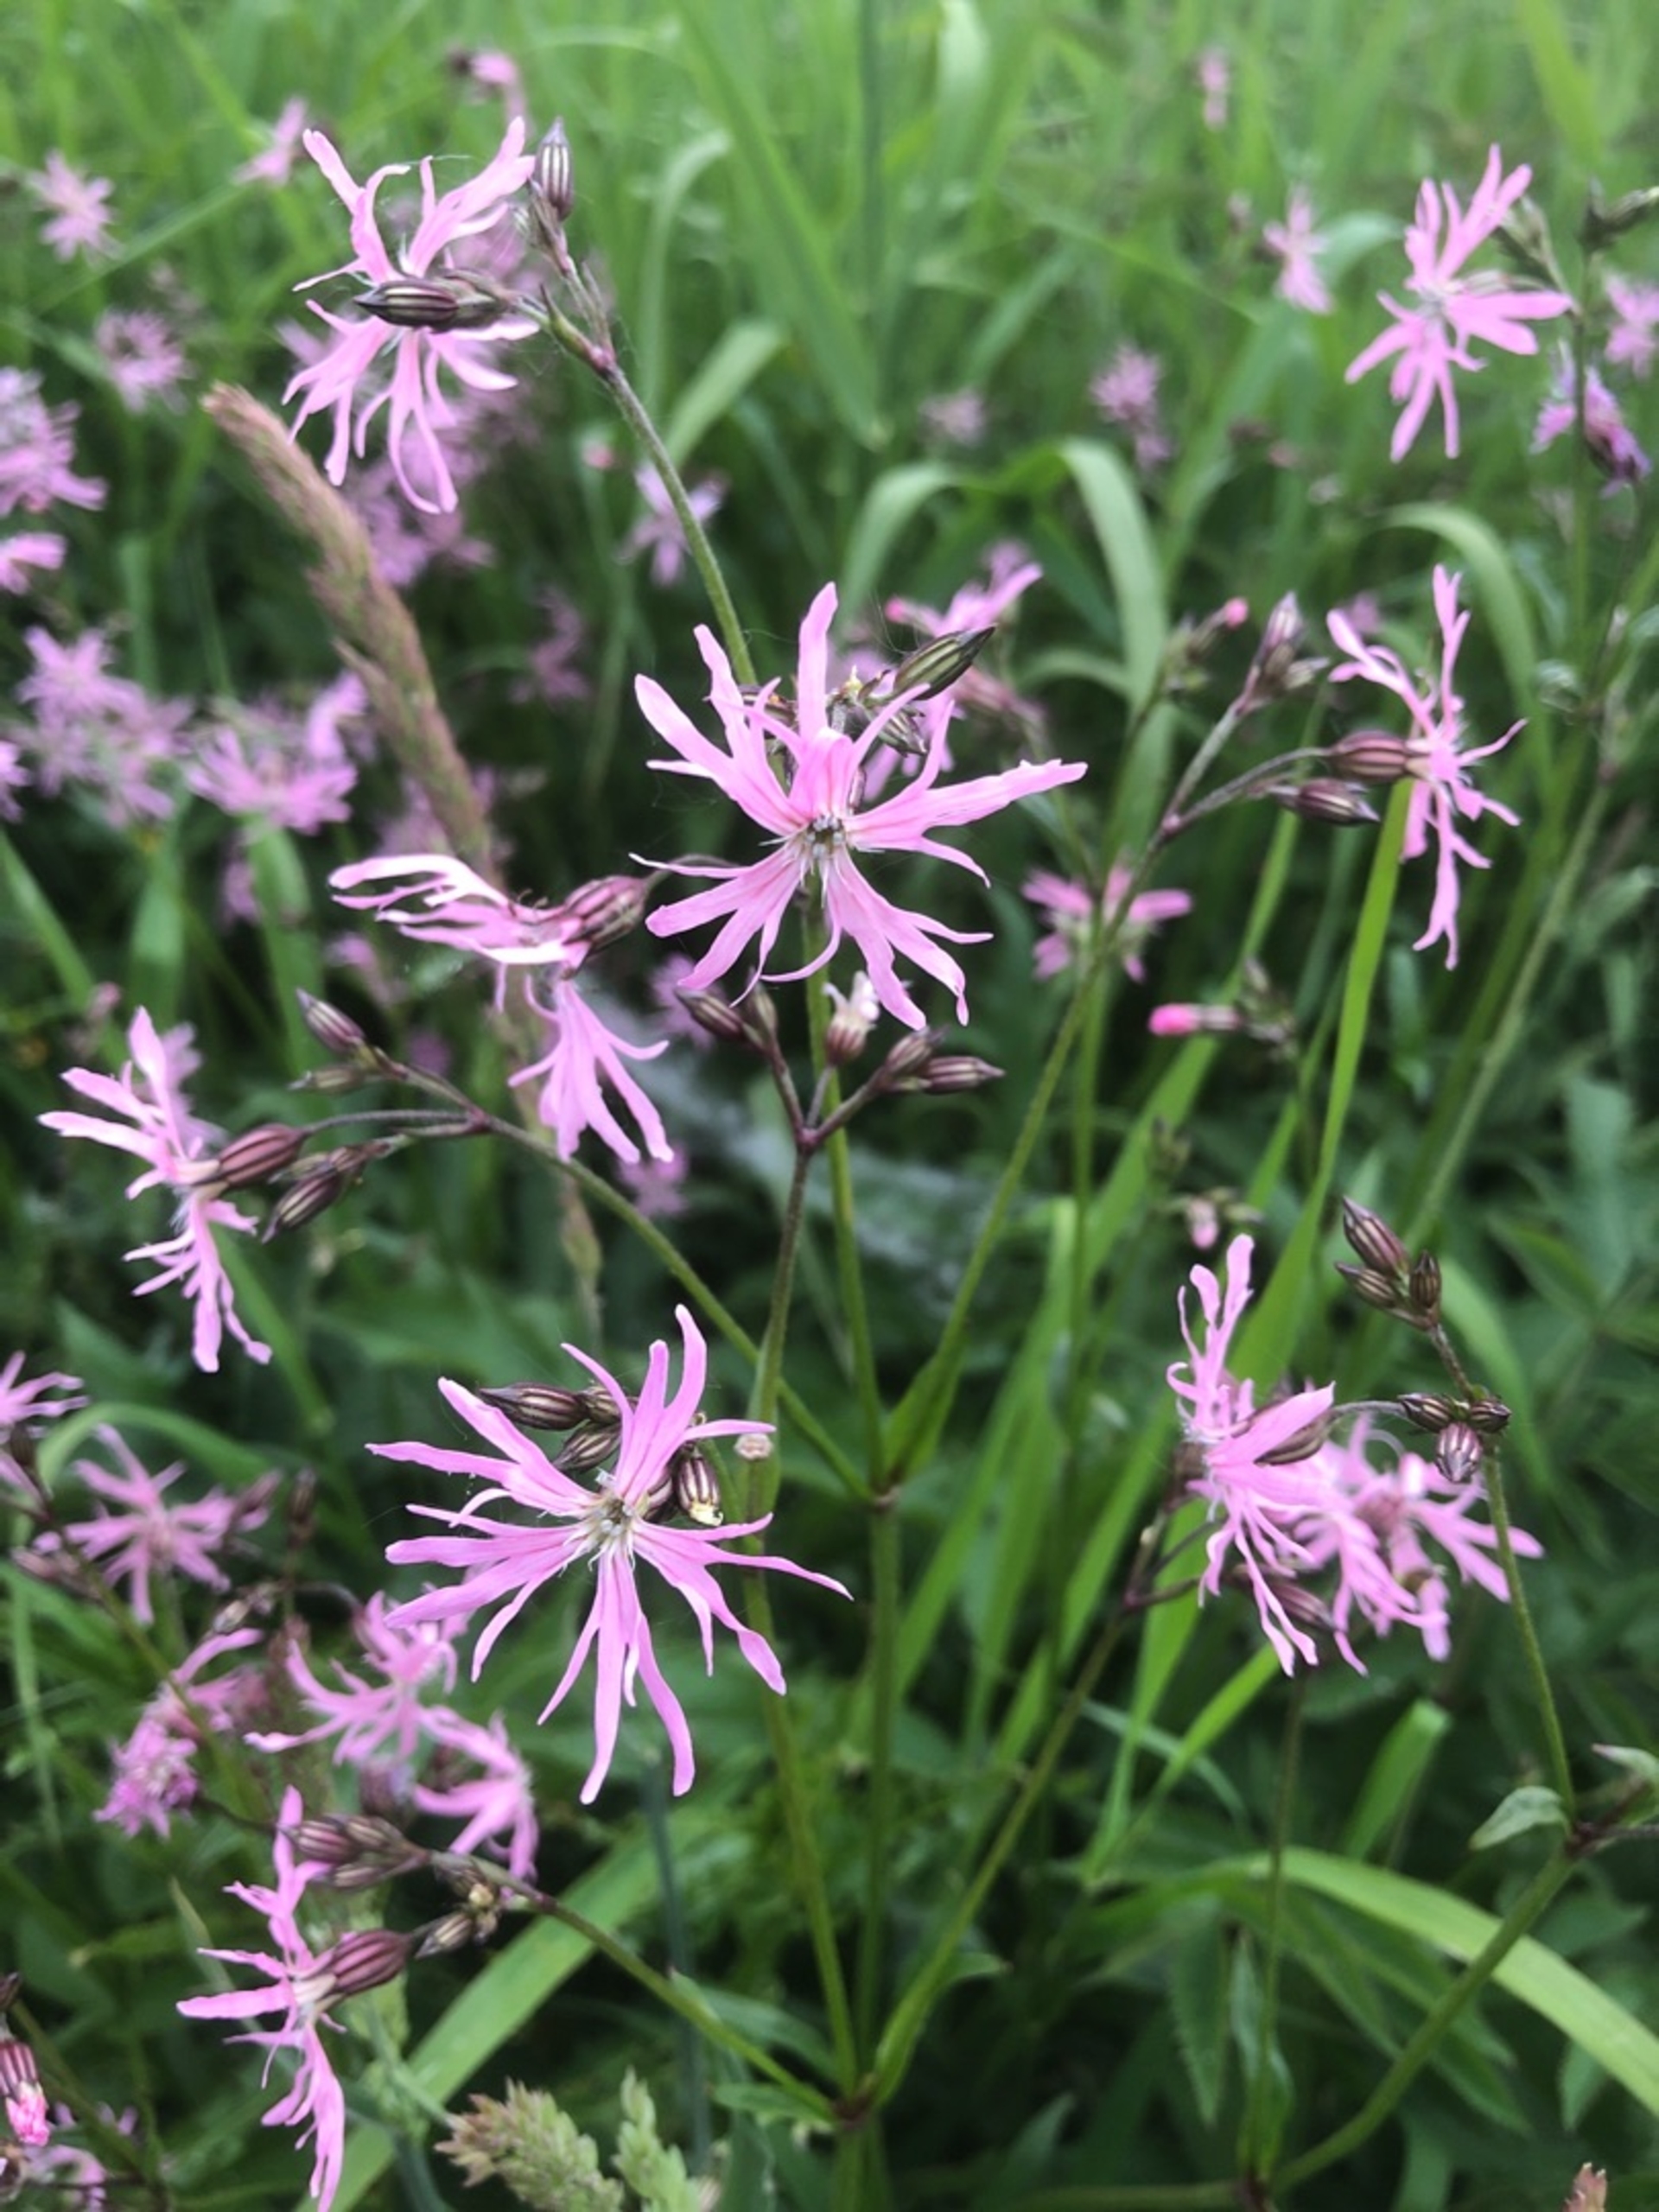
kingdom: Plantae
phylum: Tracheophyta
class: Magnoliopsida
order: Caryophyllales
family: Caryophyllaceae
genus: Silene
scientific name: Silene flos-cuculi
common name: Trævlekrone
